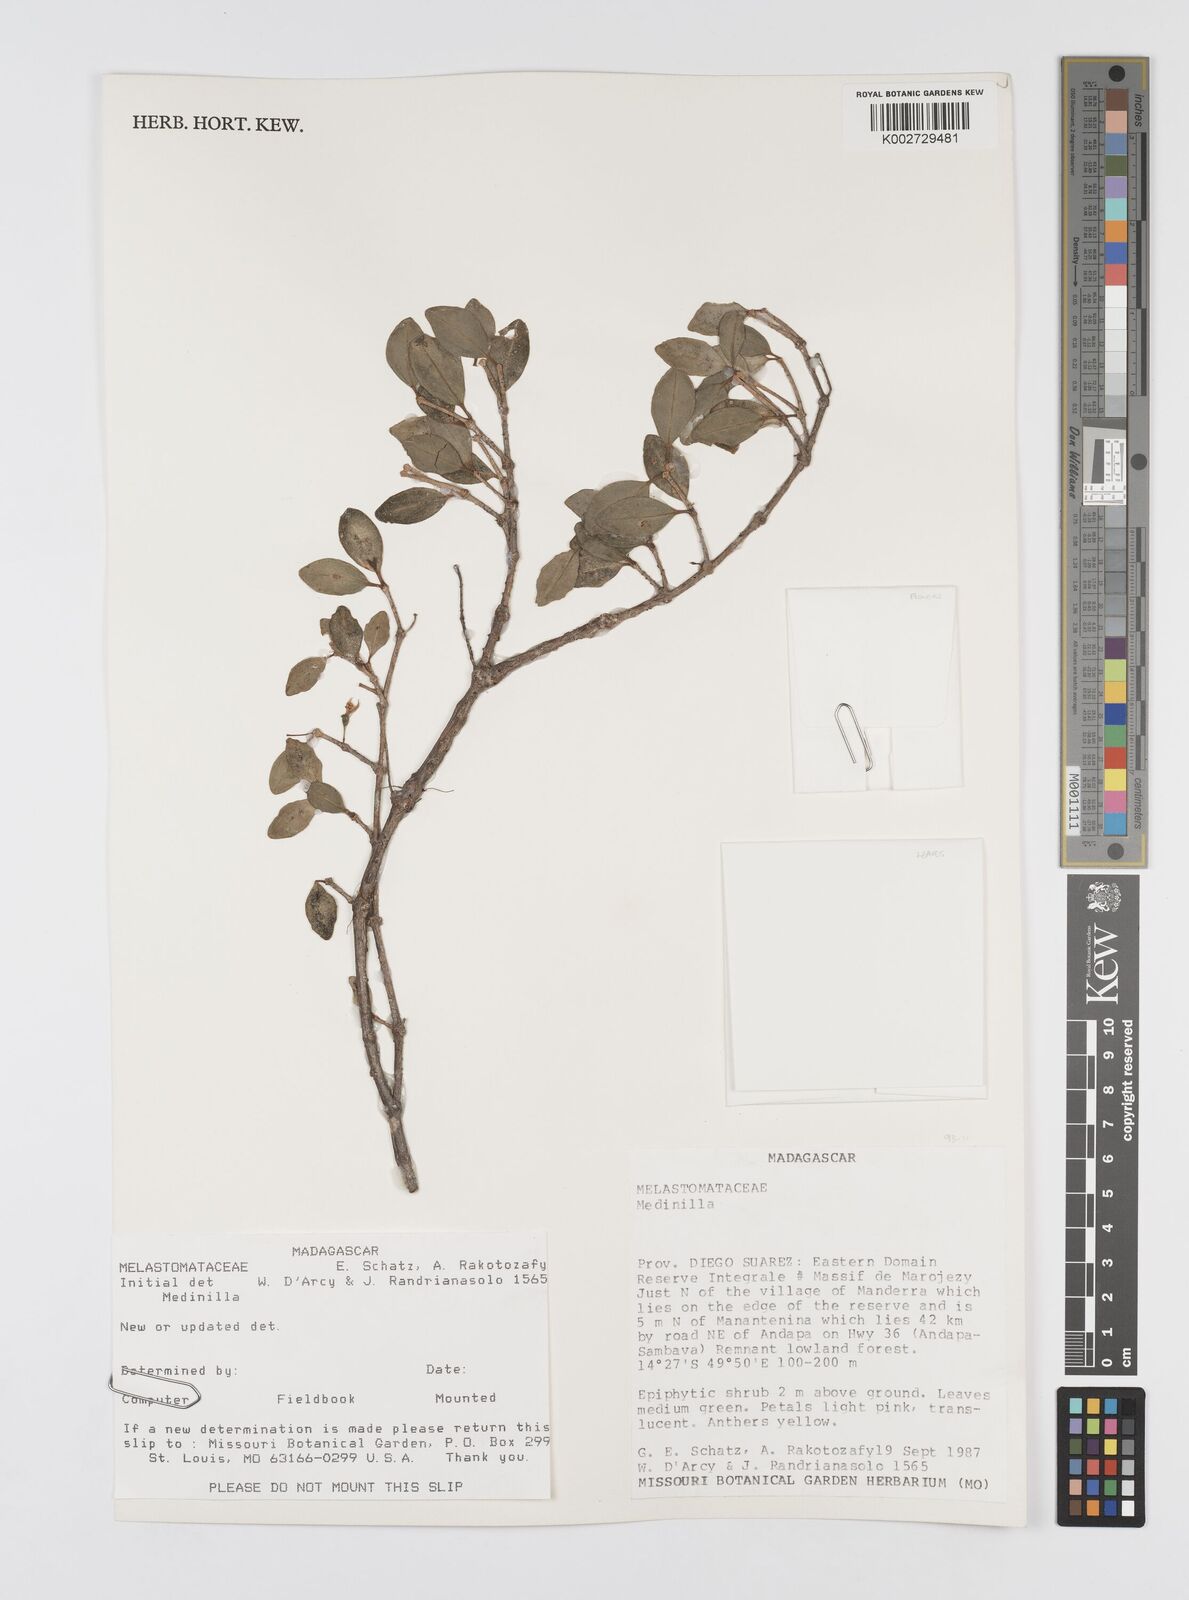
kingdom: Plantae
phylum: Tracheophyta
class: Magnoliopsida
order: Myrtales
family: Melastomataceae
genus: Medinilla
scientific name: Medinilla
